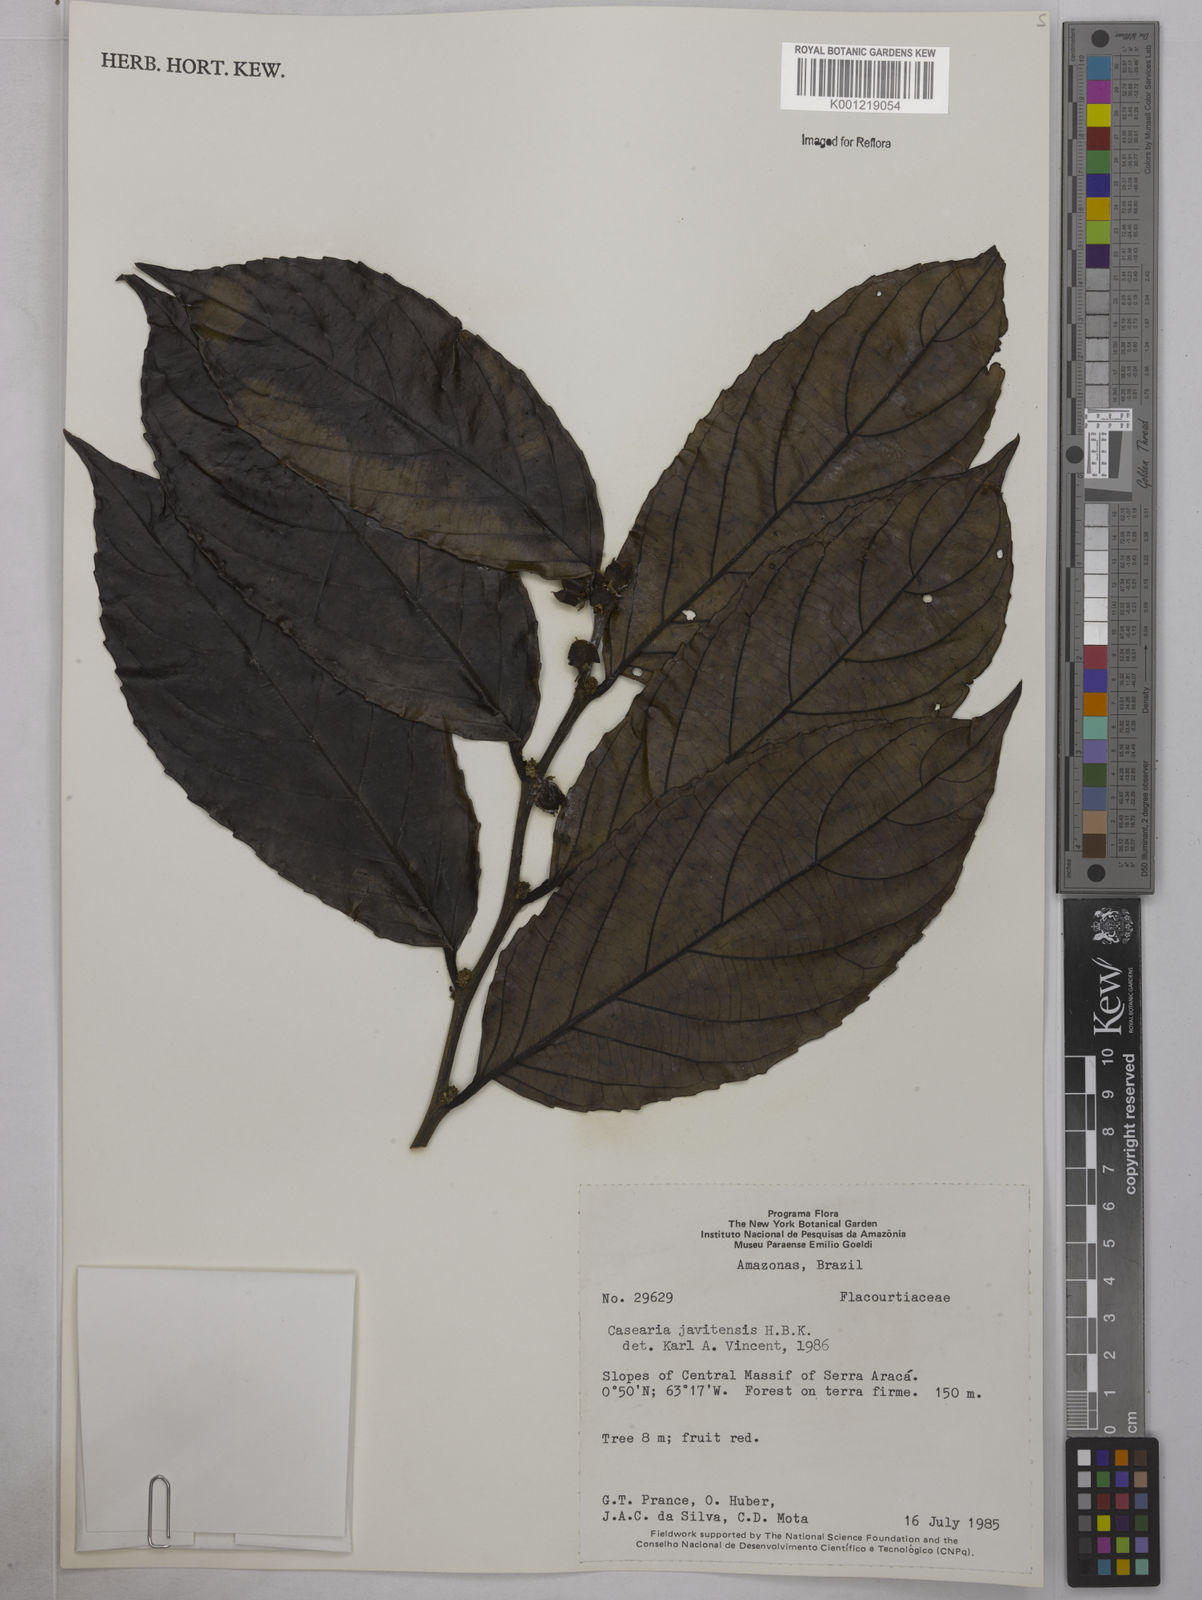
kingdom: Plantae
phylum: Tracheophyta
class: Magnoliopsida
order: Malpighiales
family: Salicaceae
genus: Piparea
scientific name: Piparea multiflora
